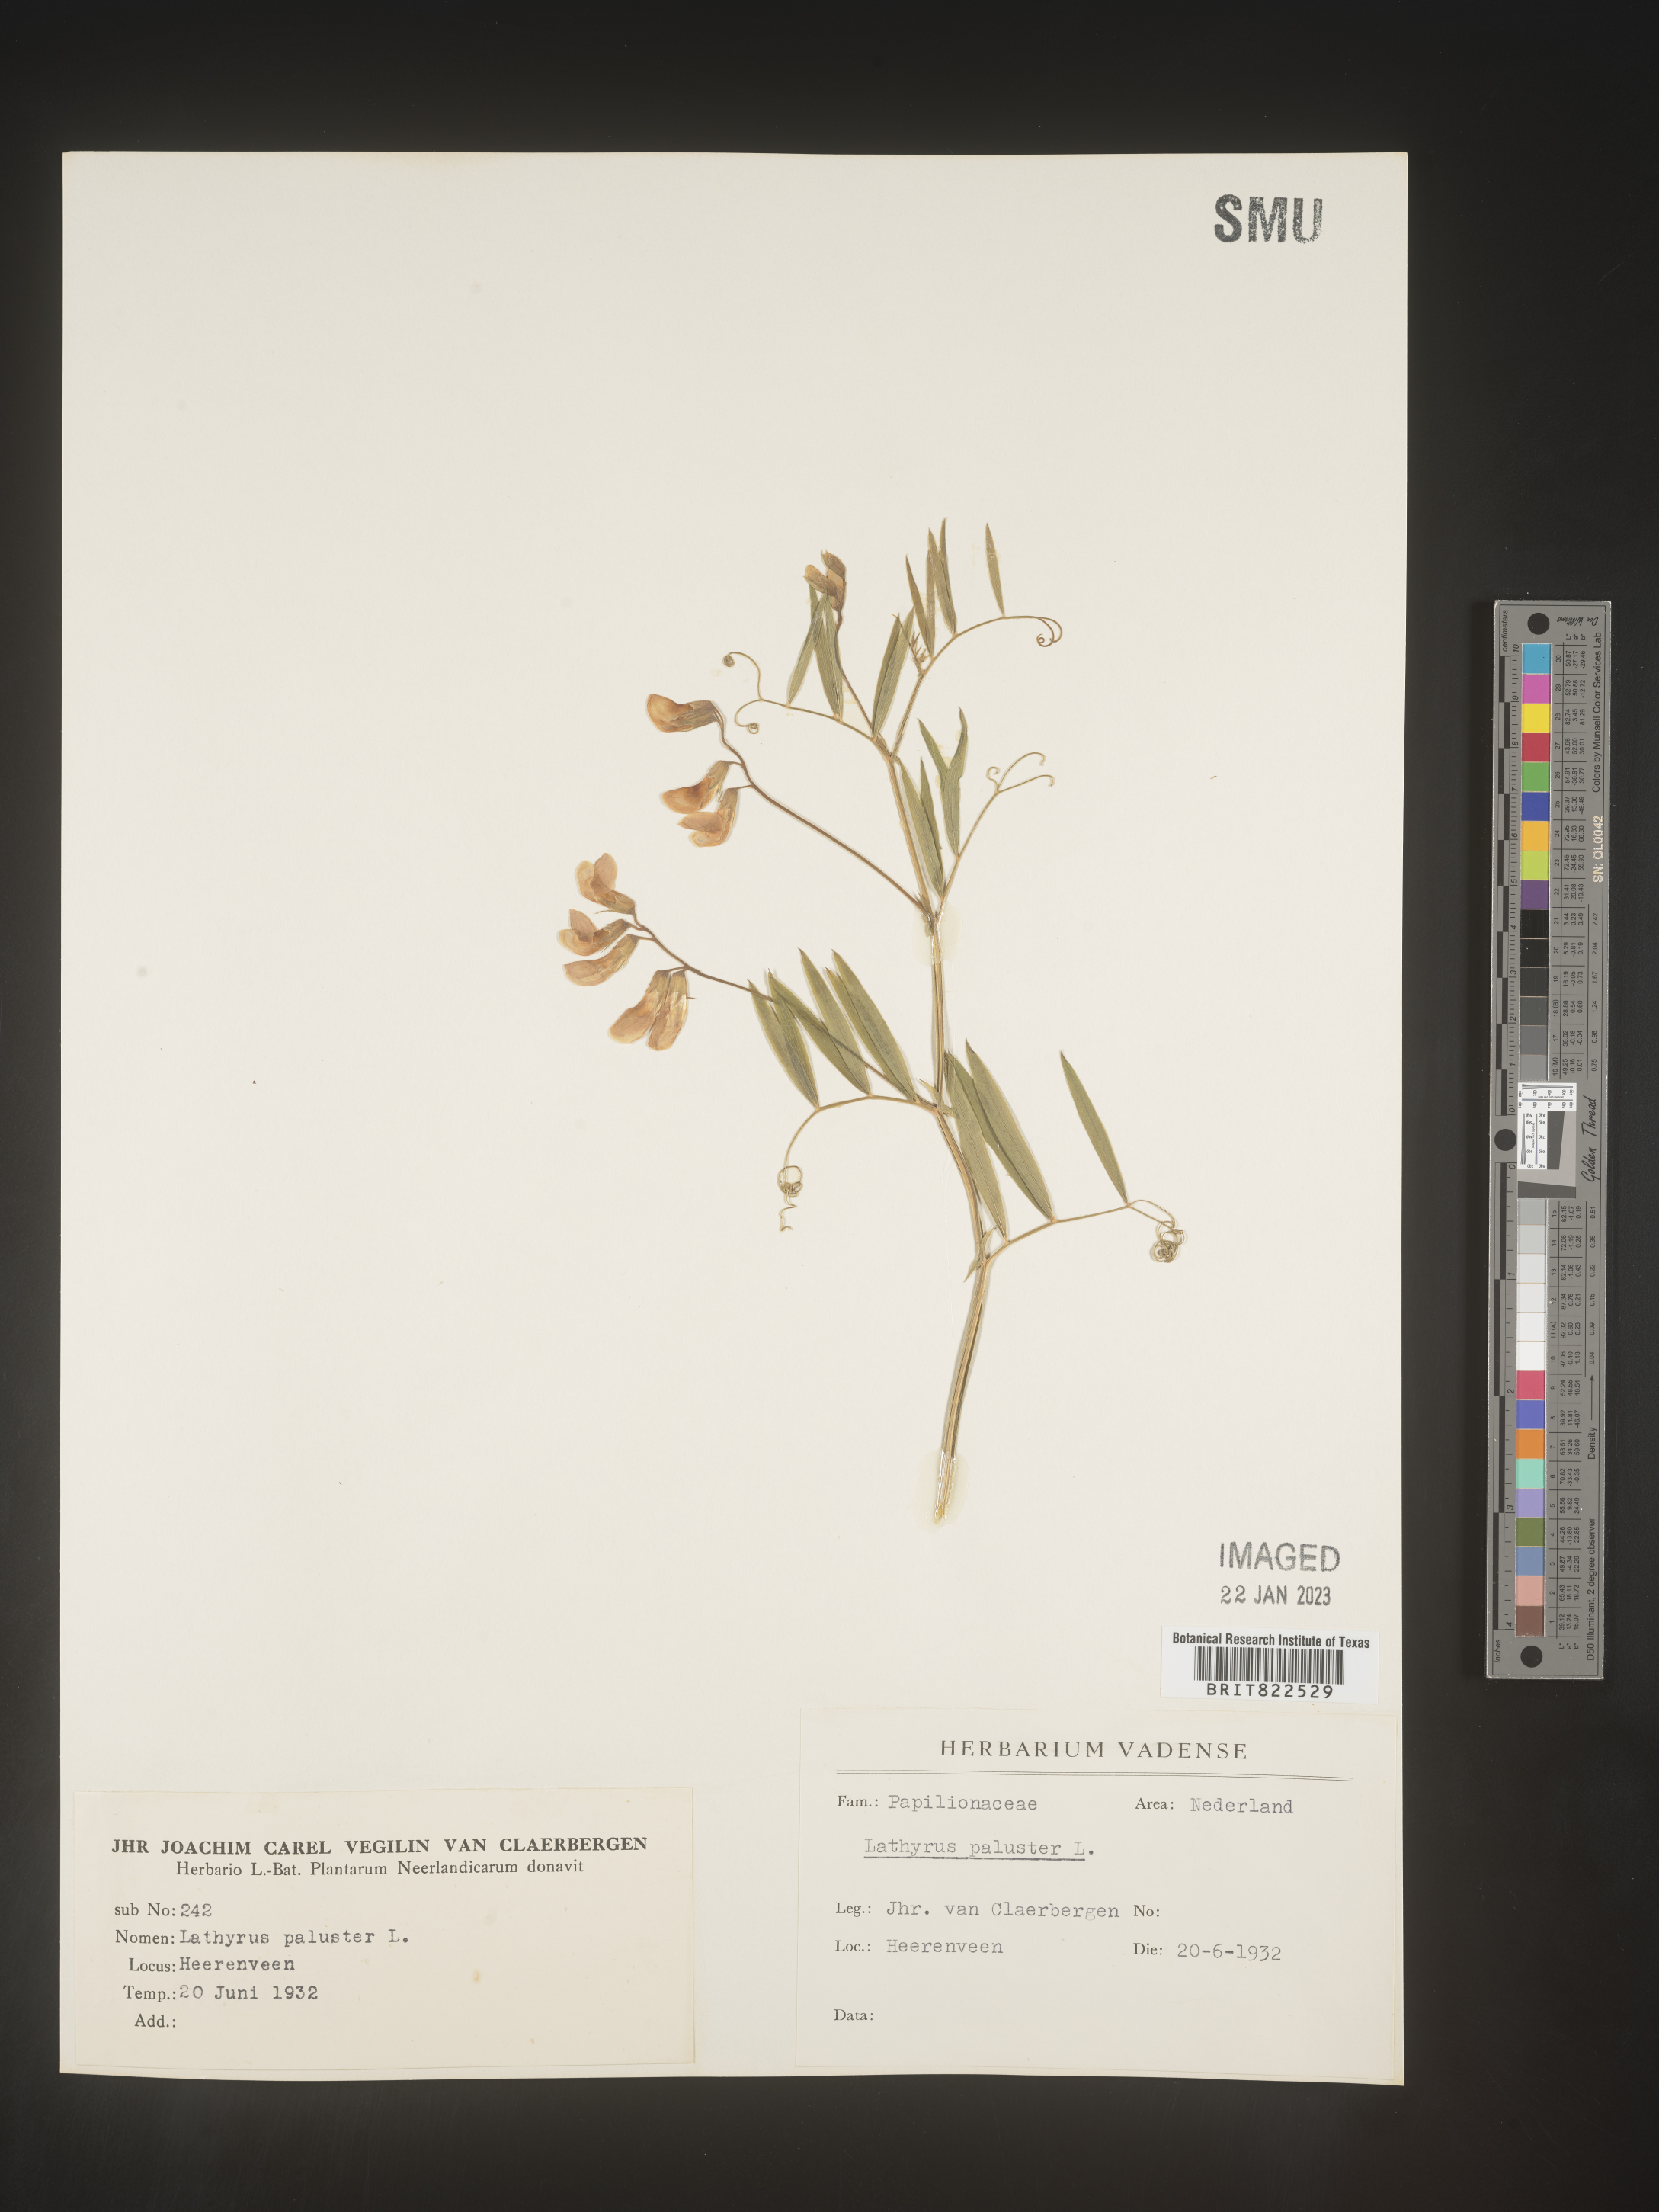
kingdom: Plantae
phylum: Tracheophyta
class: Magnoliopsida
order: Fabales
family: Fabaceae
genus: Lathyrus
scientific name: Lathyrus
